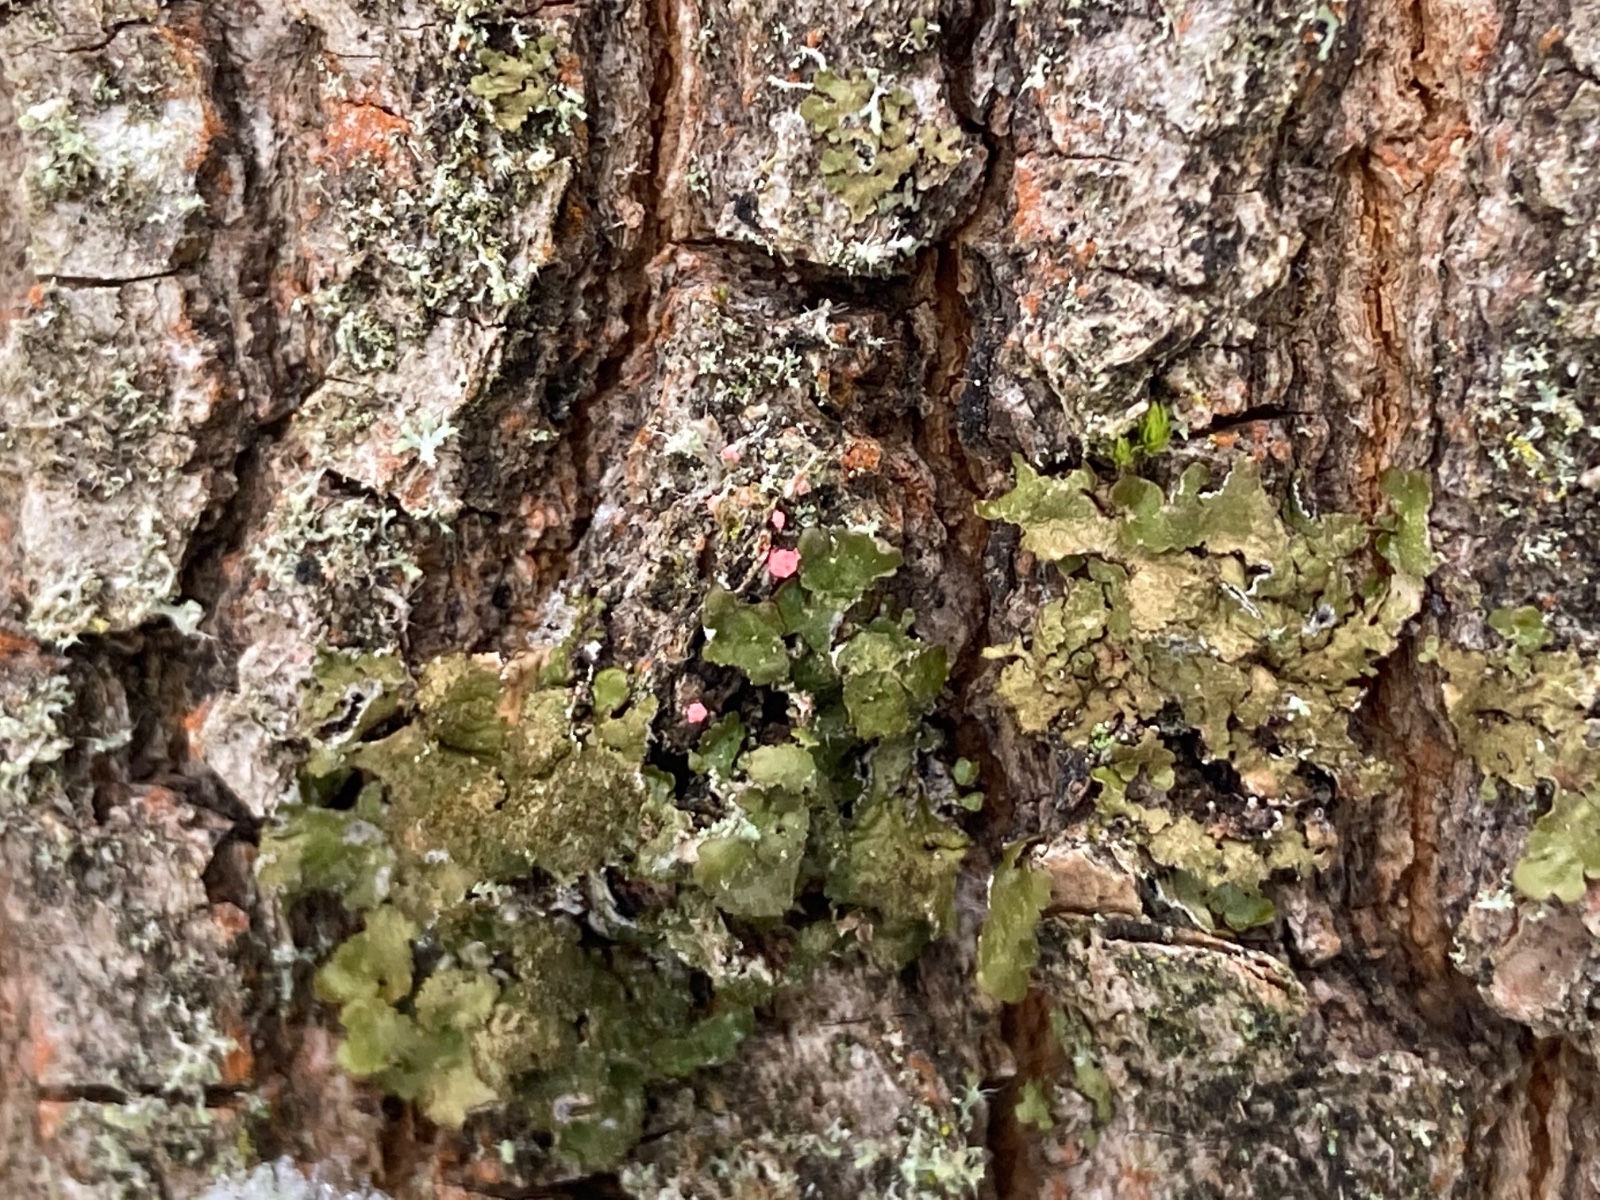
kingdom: Fungi
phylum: Ascomycota
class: Sordariomycetes
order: Hypocreales
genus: Illosporiopsis
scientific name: Illosporiopsis christiansenii
